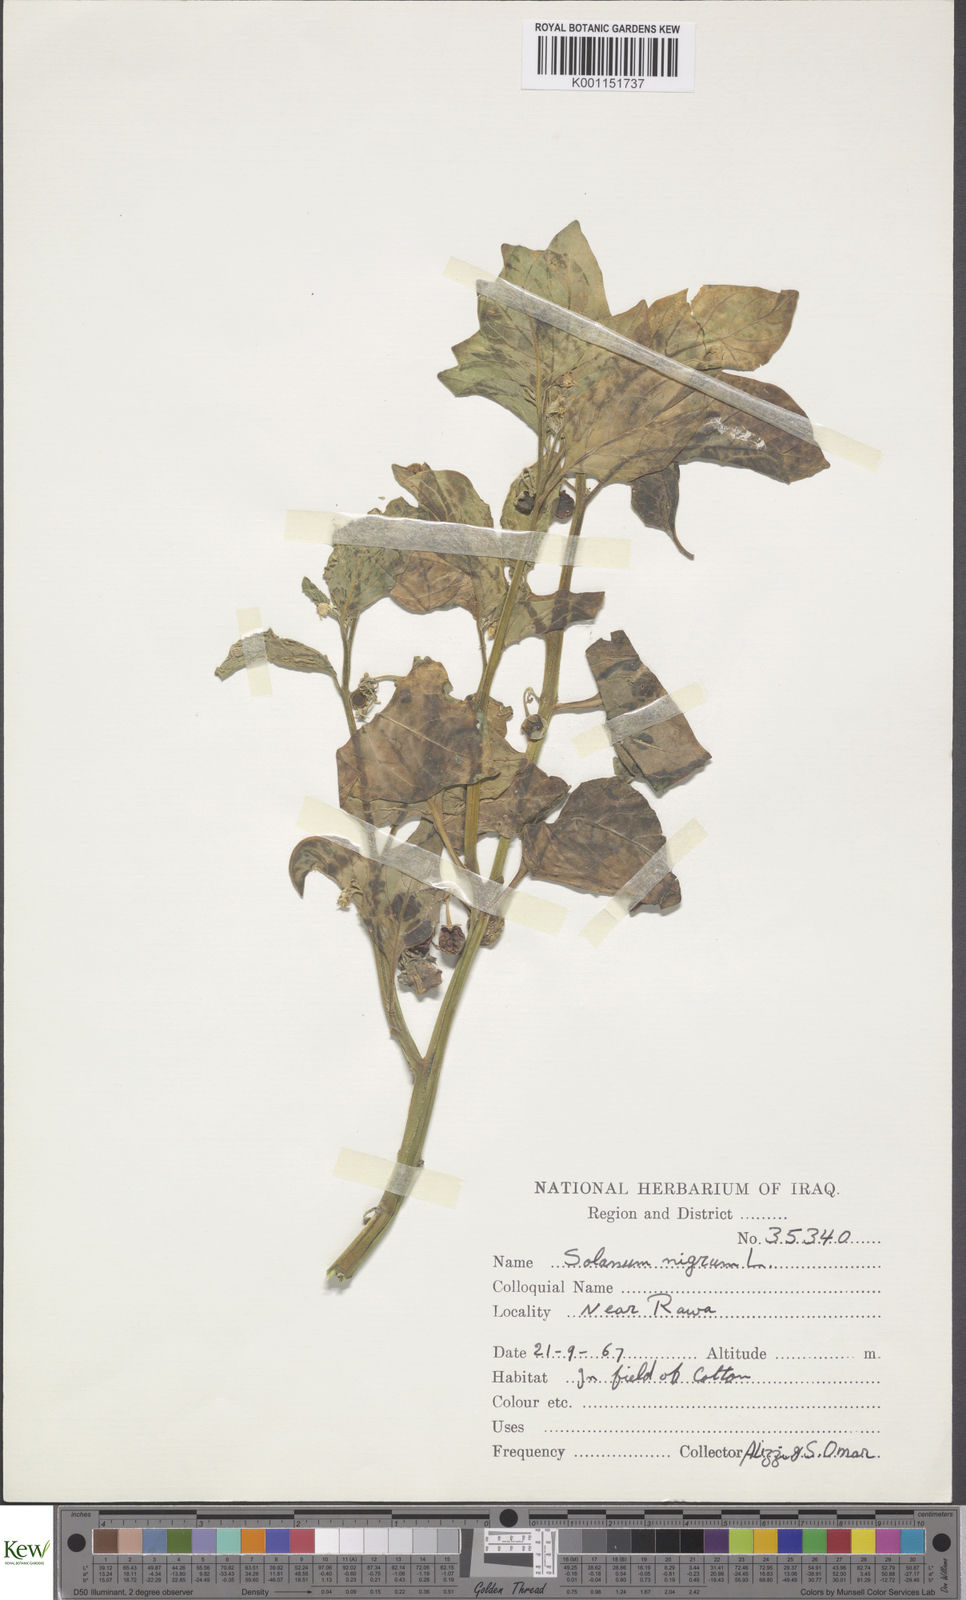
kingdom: Plantae
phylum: Tracheophyta
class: Magnoliopsida
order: Solanales
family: Solanaceae
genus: Solanum
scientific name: Solanum nigrum
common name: Black nightshade
